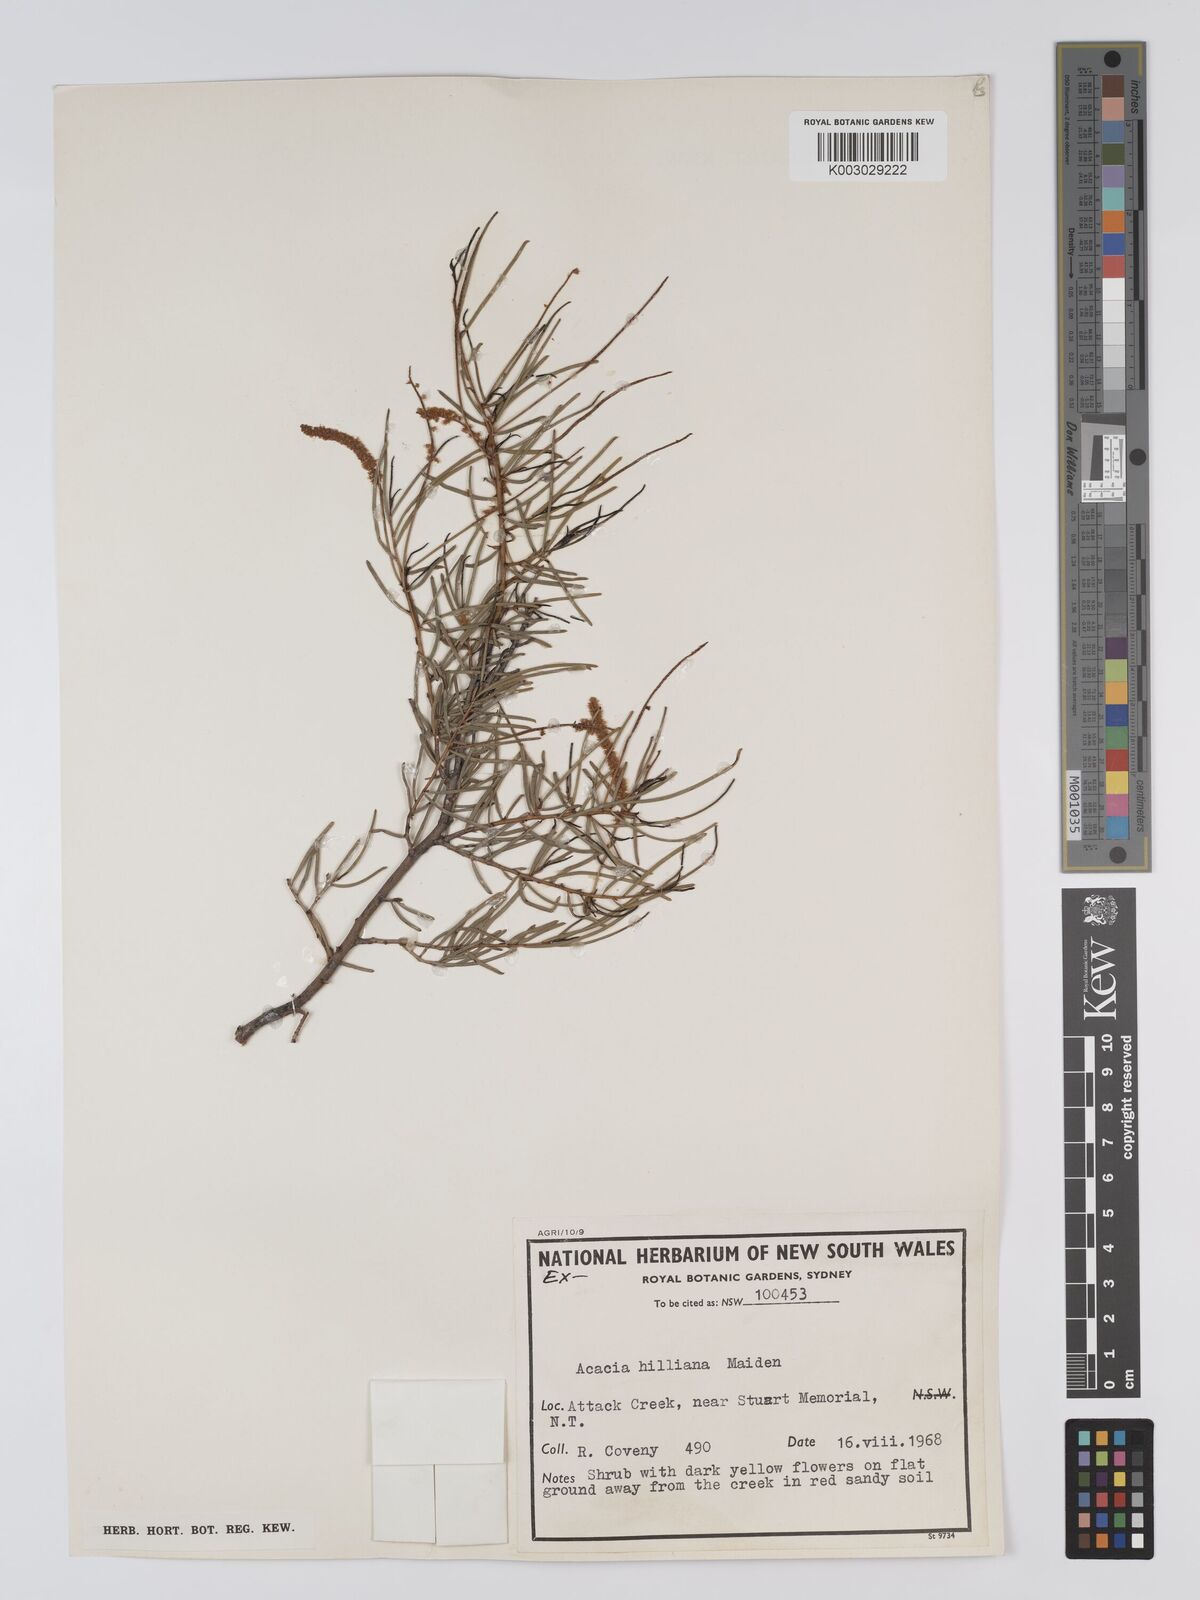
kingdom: Plantae
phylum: Tracheophyta
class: Magnoliopsida
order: Fabales
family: Fabaceae
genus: Acacia
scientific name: Acacia hilliana
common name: Hill's tabletop wattle
